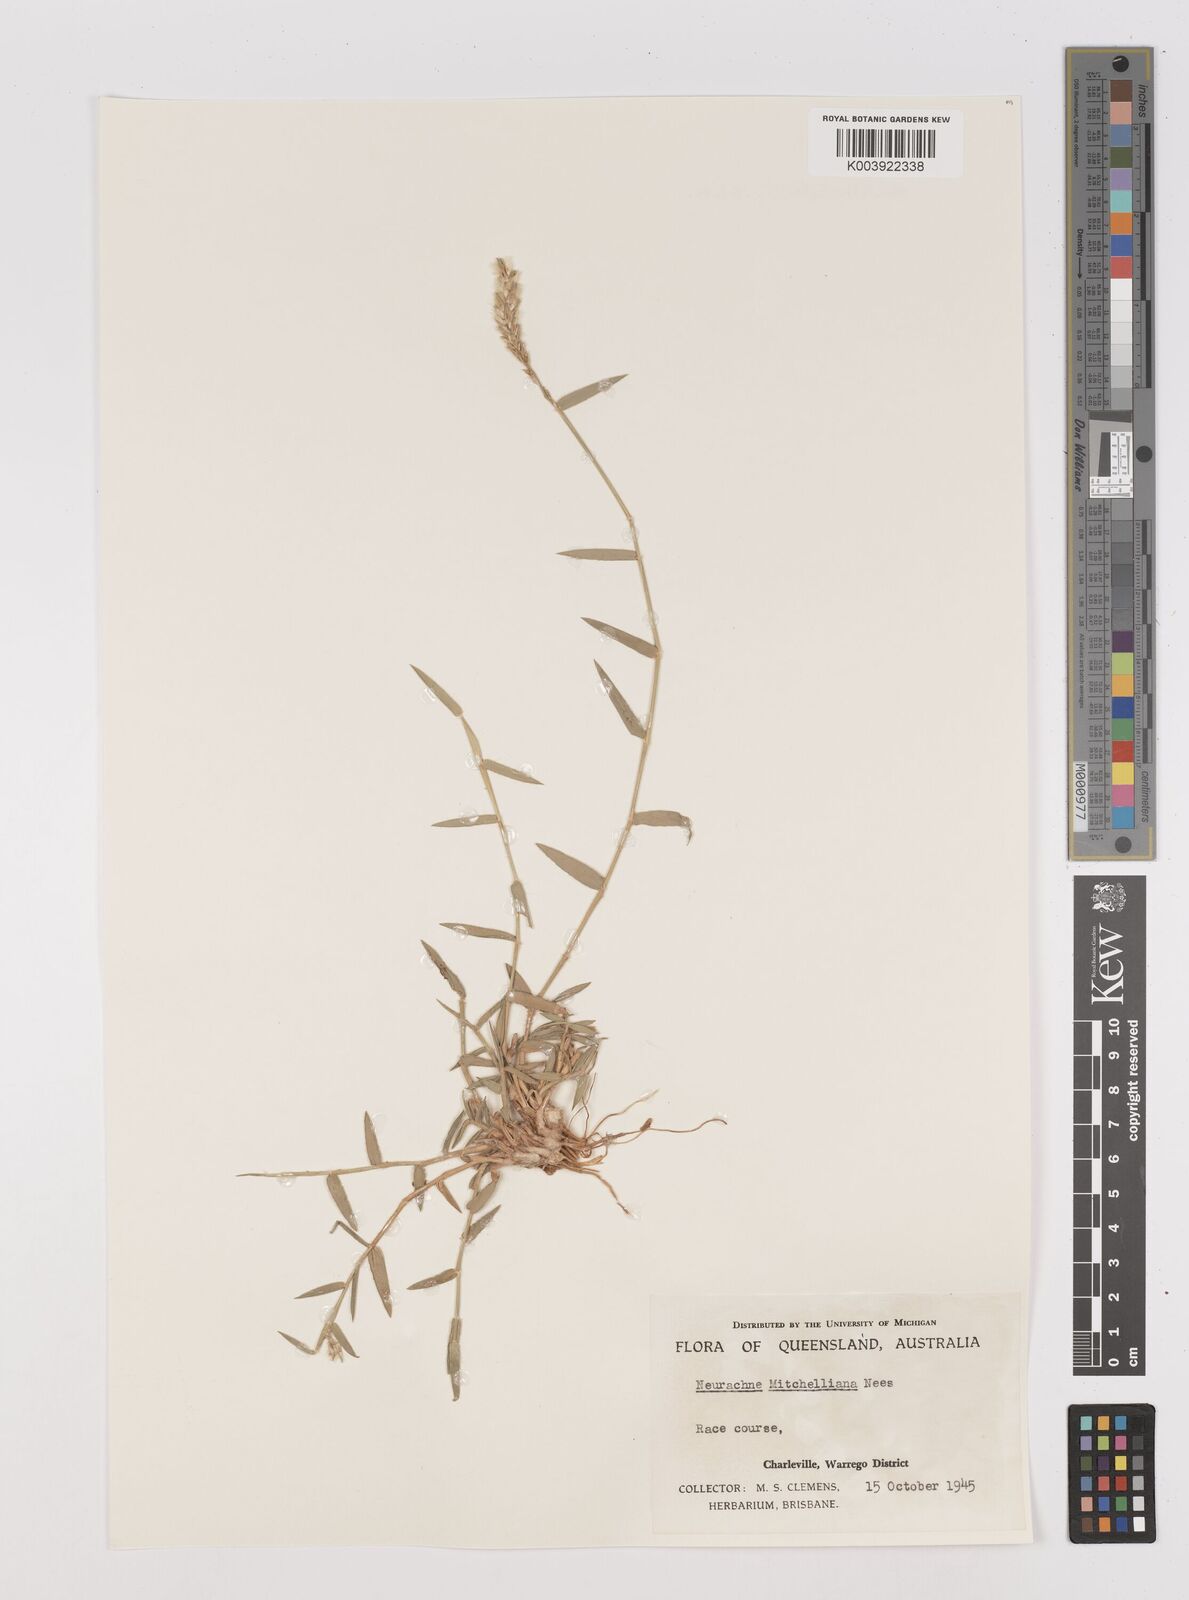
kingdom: Plantae
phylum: Tracheophyta
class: Liliopsida
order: Poales
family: Poaceae
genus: Thyridolepis
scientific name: Thyridolepis mitchelliana
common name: Rock tassel grass
